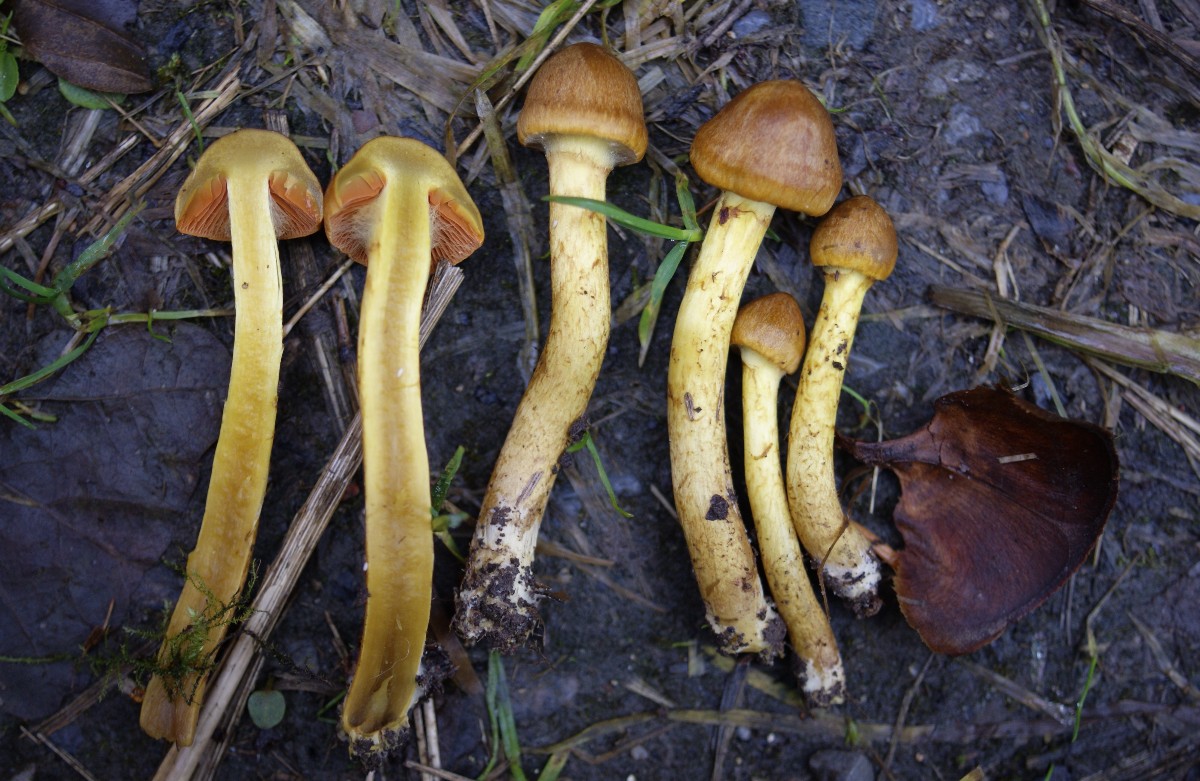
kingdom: Fungi
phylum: Basidiomycota
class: Agaricomycetes
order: Agaricales
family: Cortinariaceae
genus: Cortinarius
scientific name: Cortinarius malicorius
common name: grønkødet slørhat
